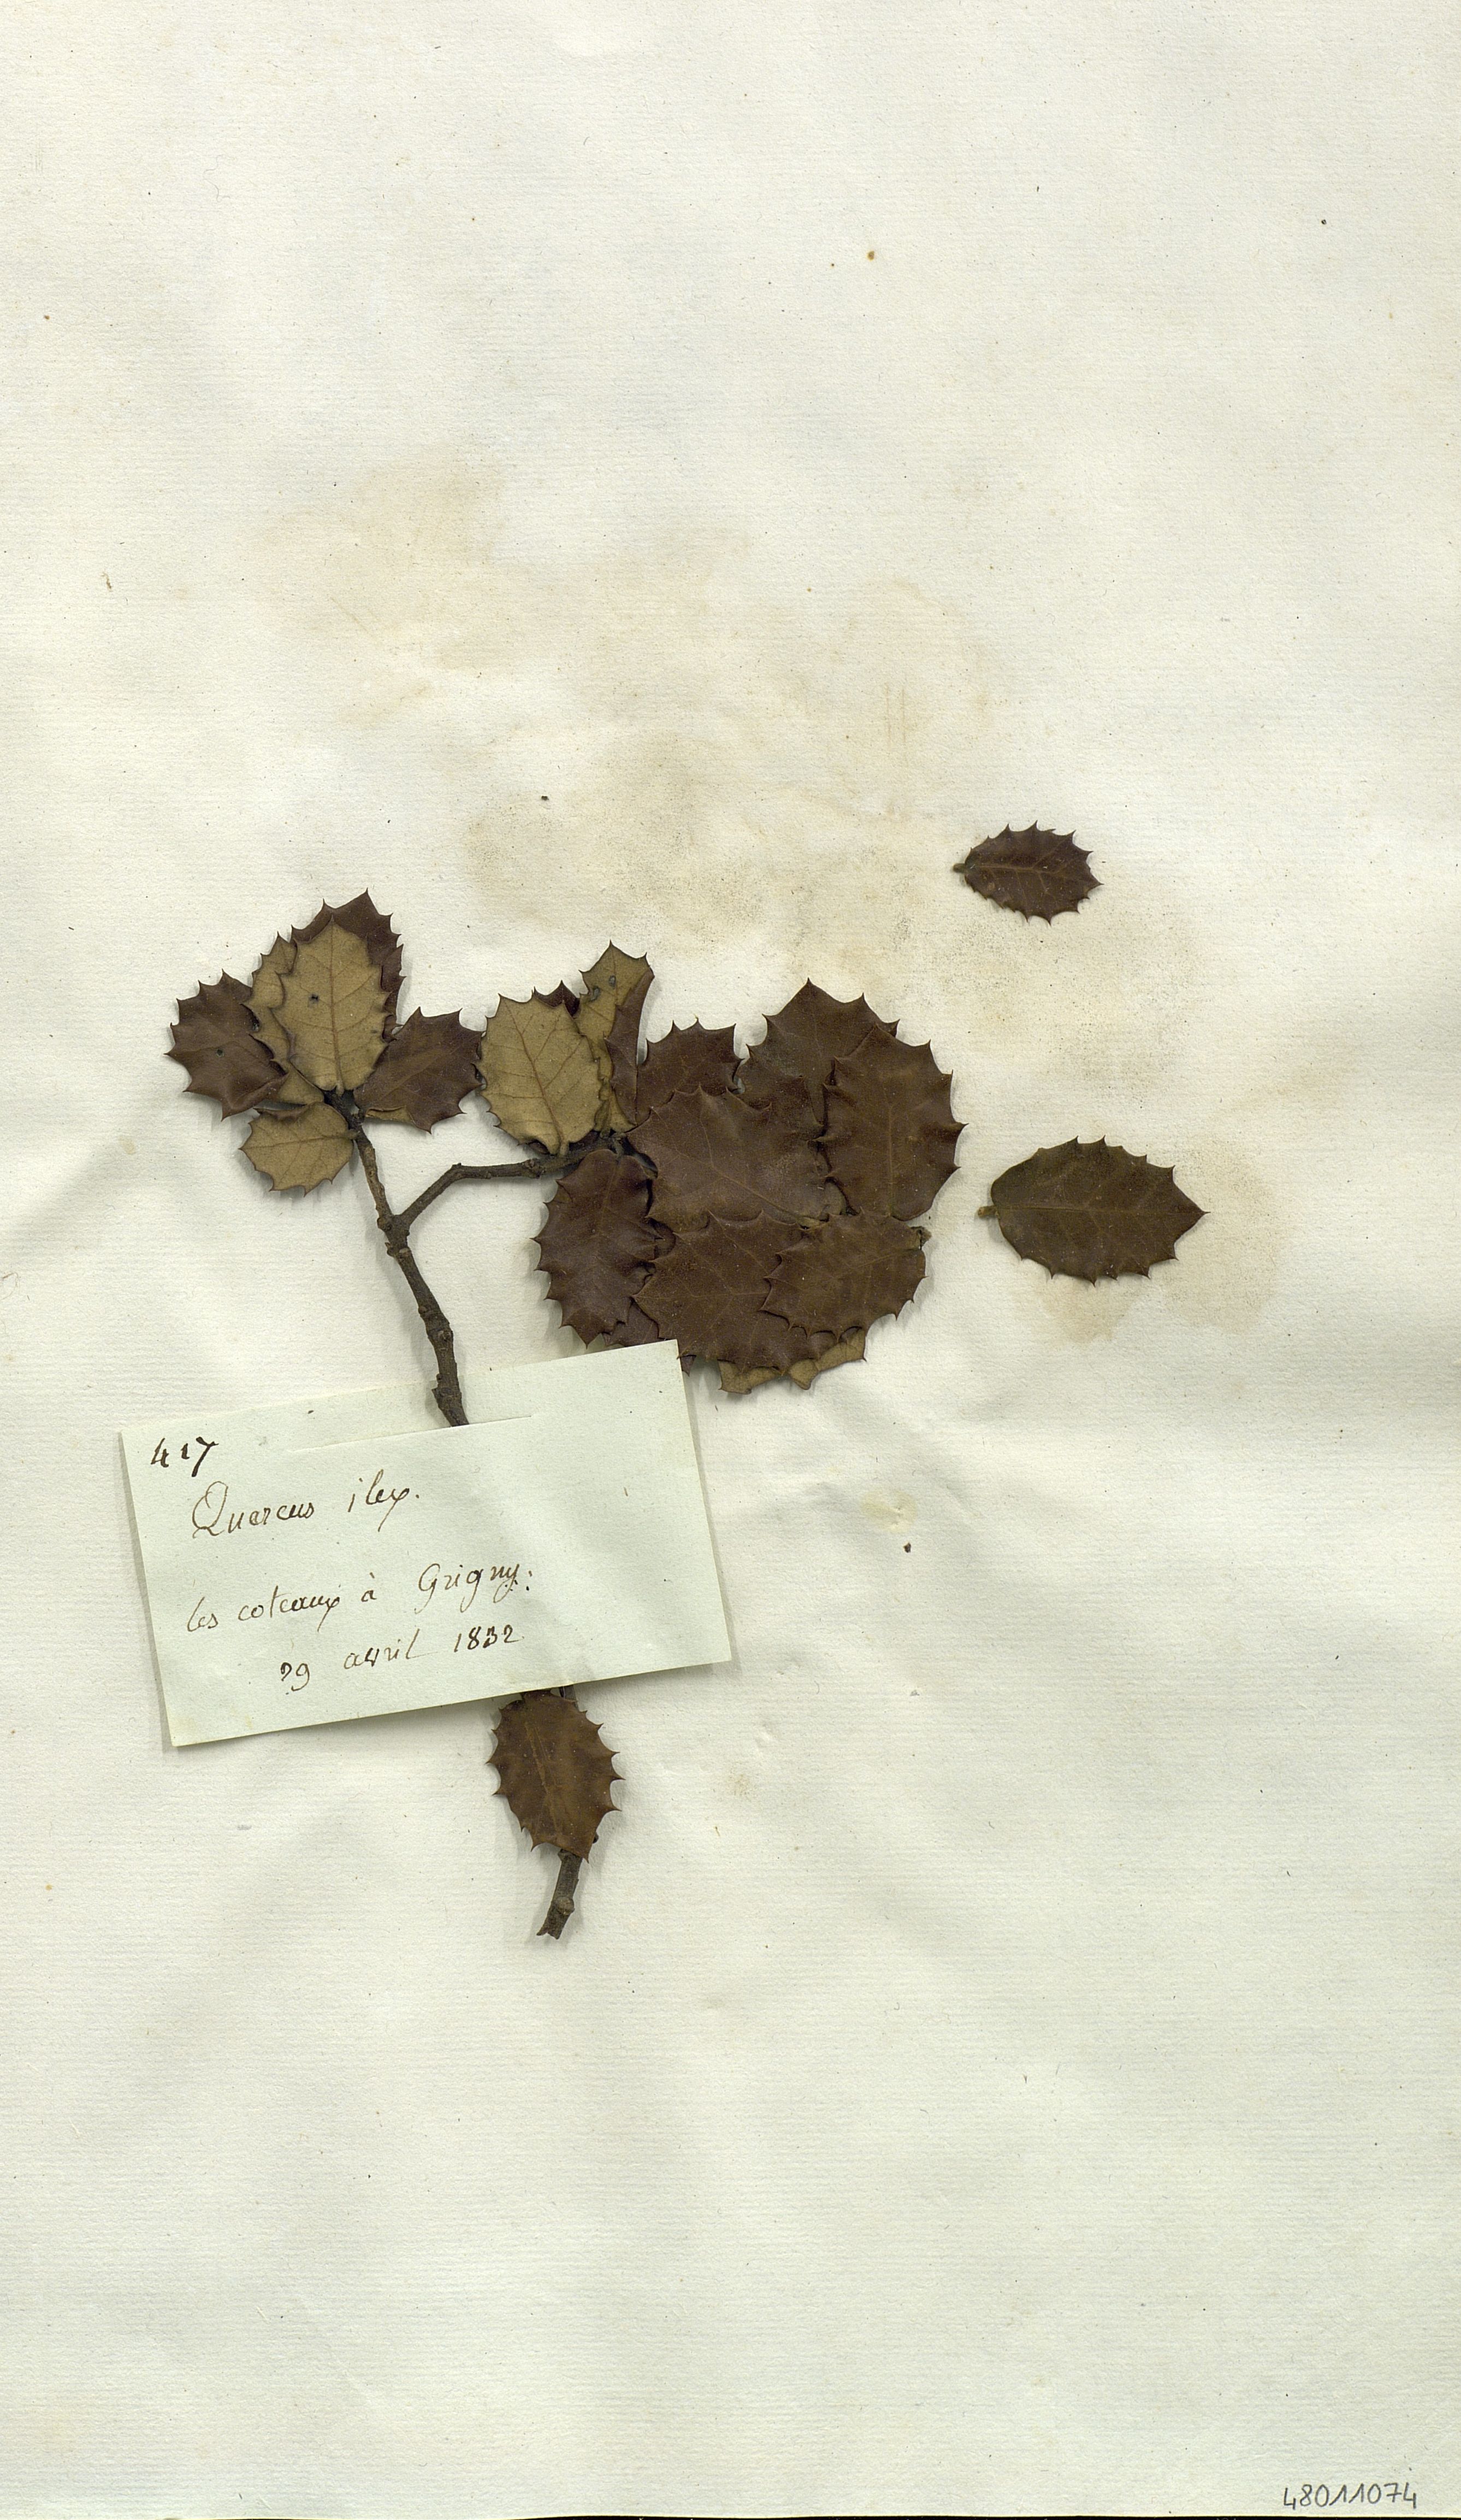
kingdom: Plantae
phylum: Tracheophyta
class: Magnoliopsida
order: Fagales
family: Fagaceae
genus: Quercus
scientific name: Quercus ilex
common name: Evergreen oak
